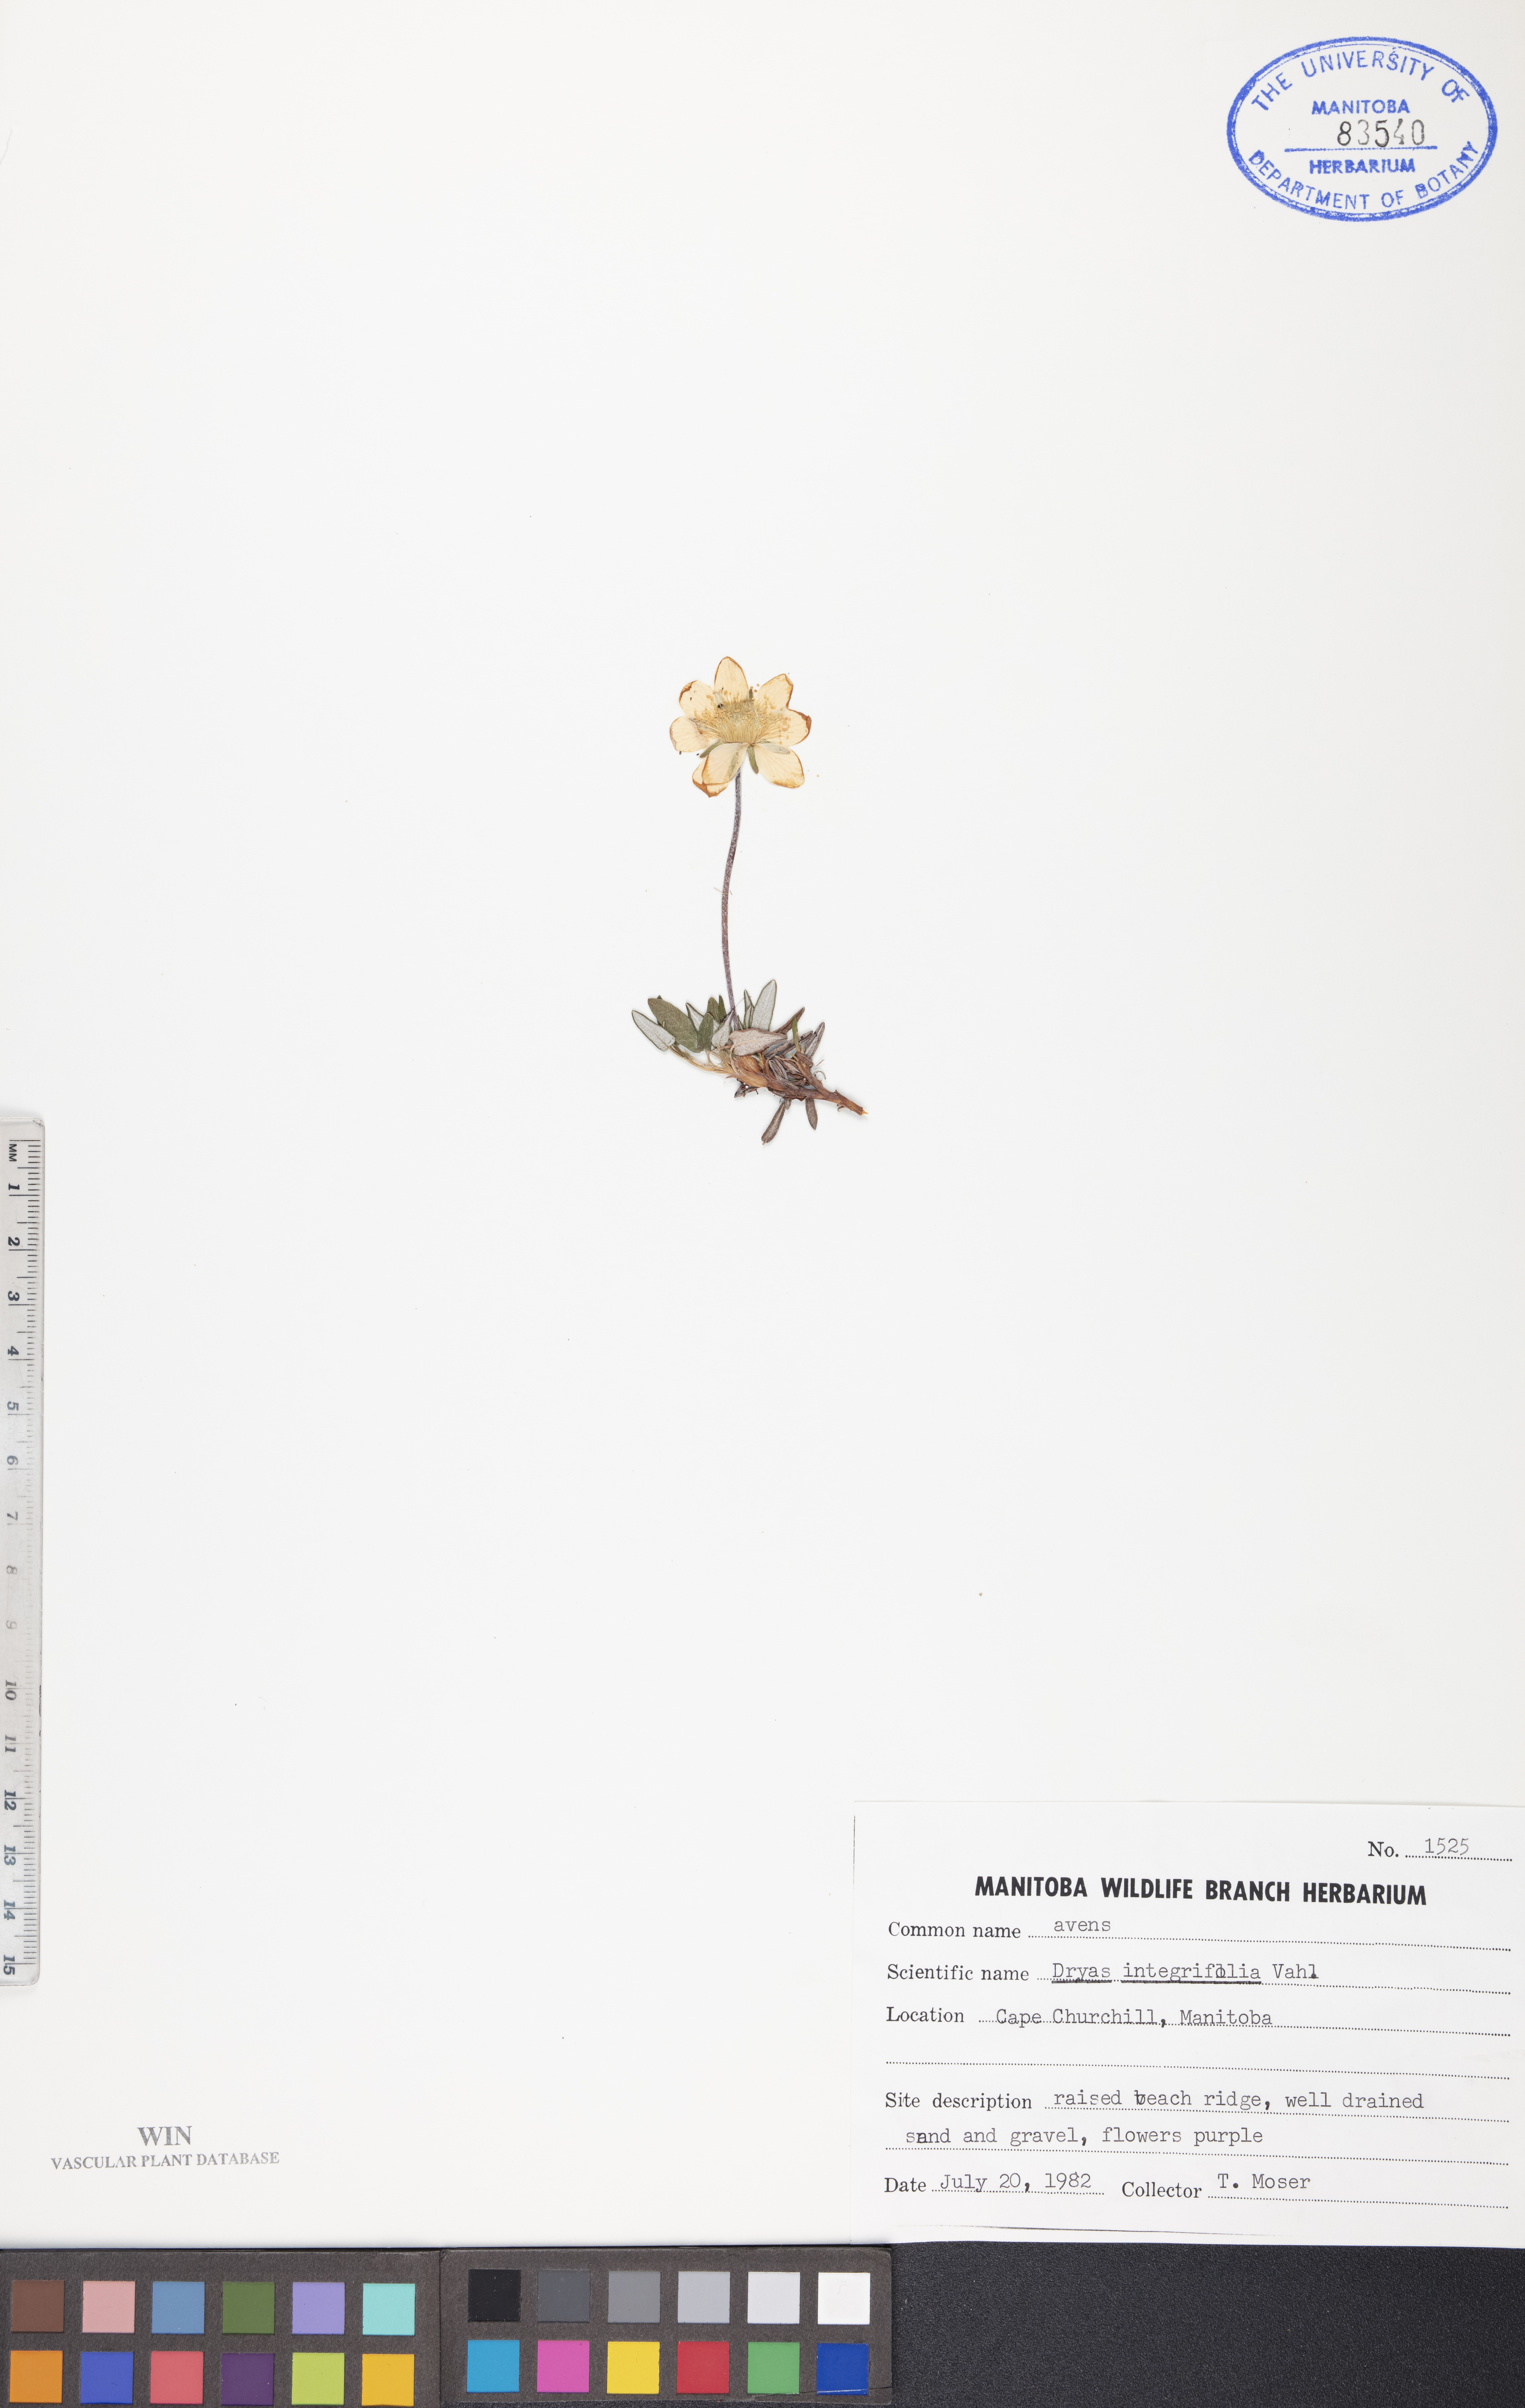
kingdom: Plantae
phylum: Tracheophyta
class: Magnoliopsida
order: Rosales
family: Rosaceae
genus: Dryas
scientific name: Dryas integrifolia
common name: Entire-leaved mountain avens
